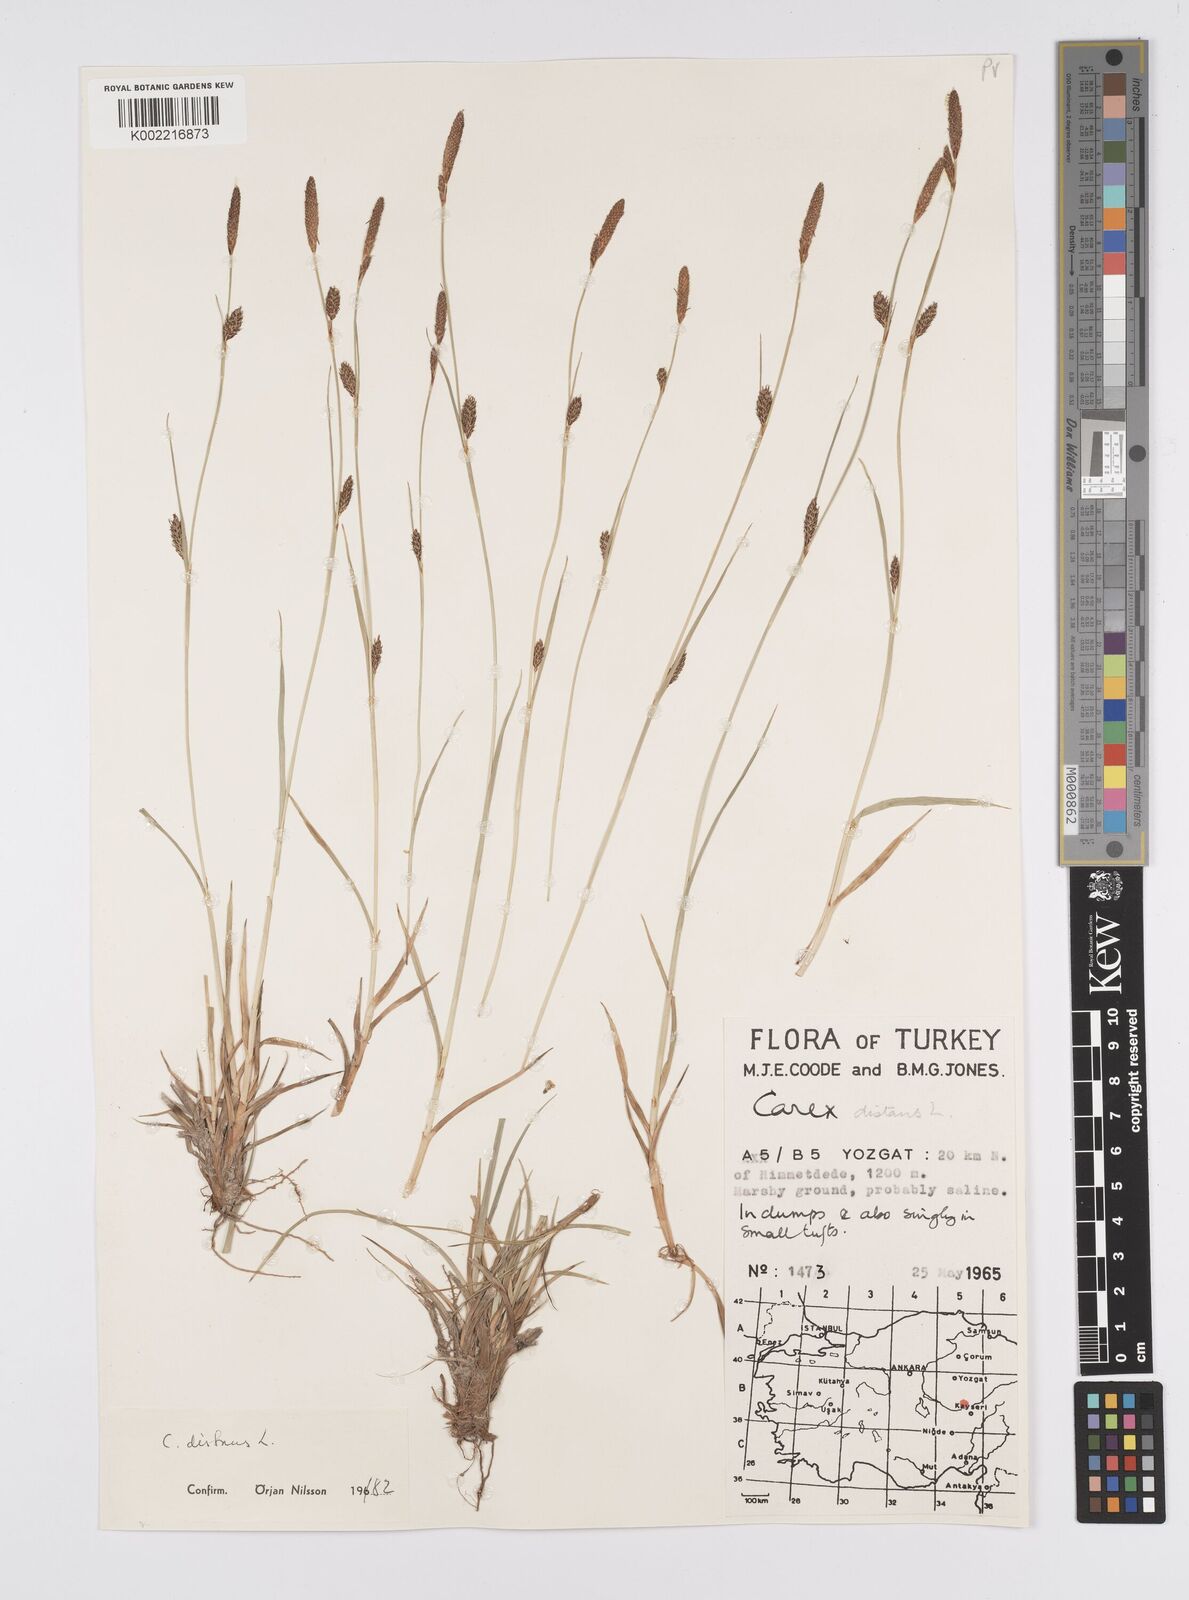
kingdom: Plantae
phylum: Tracheophyta
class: Liliopsida
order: Poales
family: Cyperaceae
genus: Carex
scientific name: Carex distans
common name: Distant sedge
